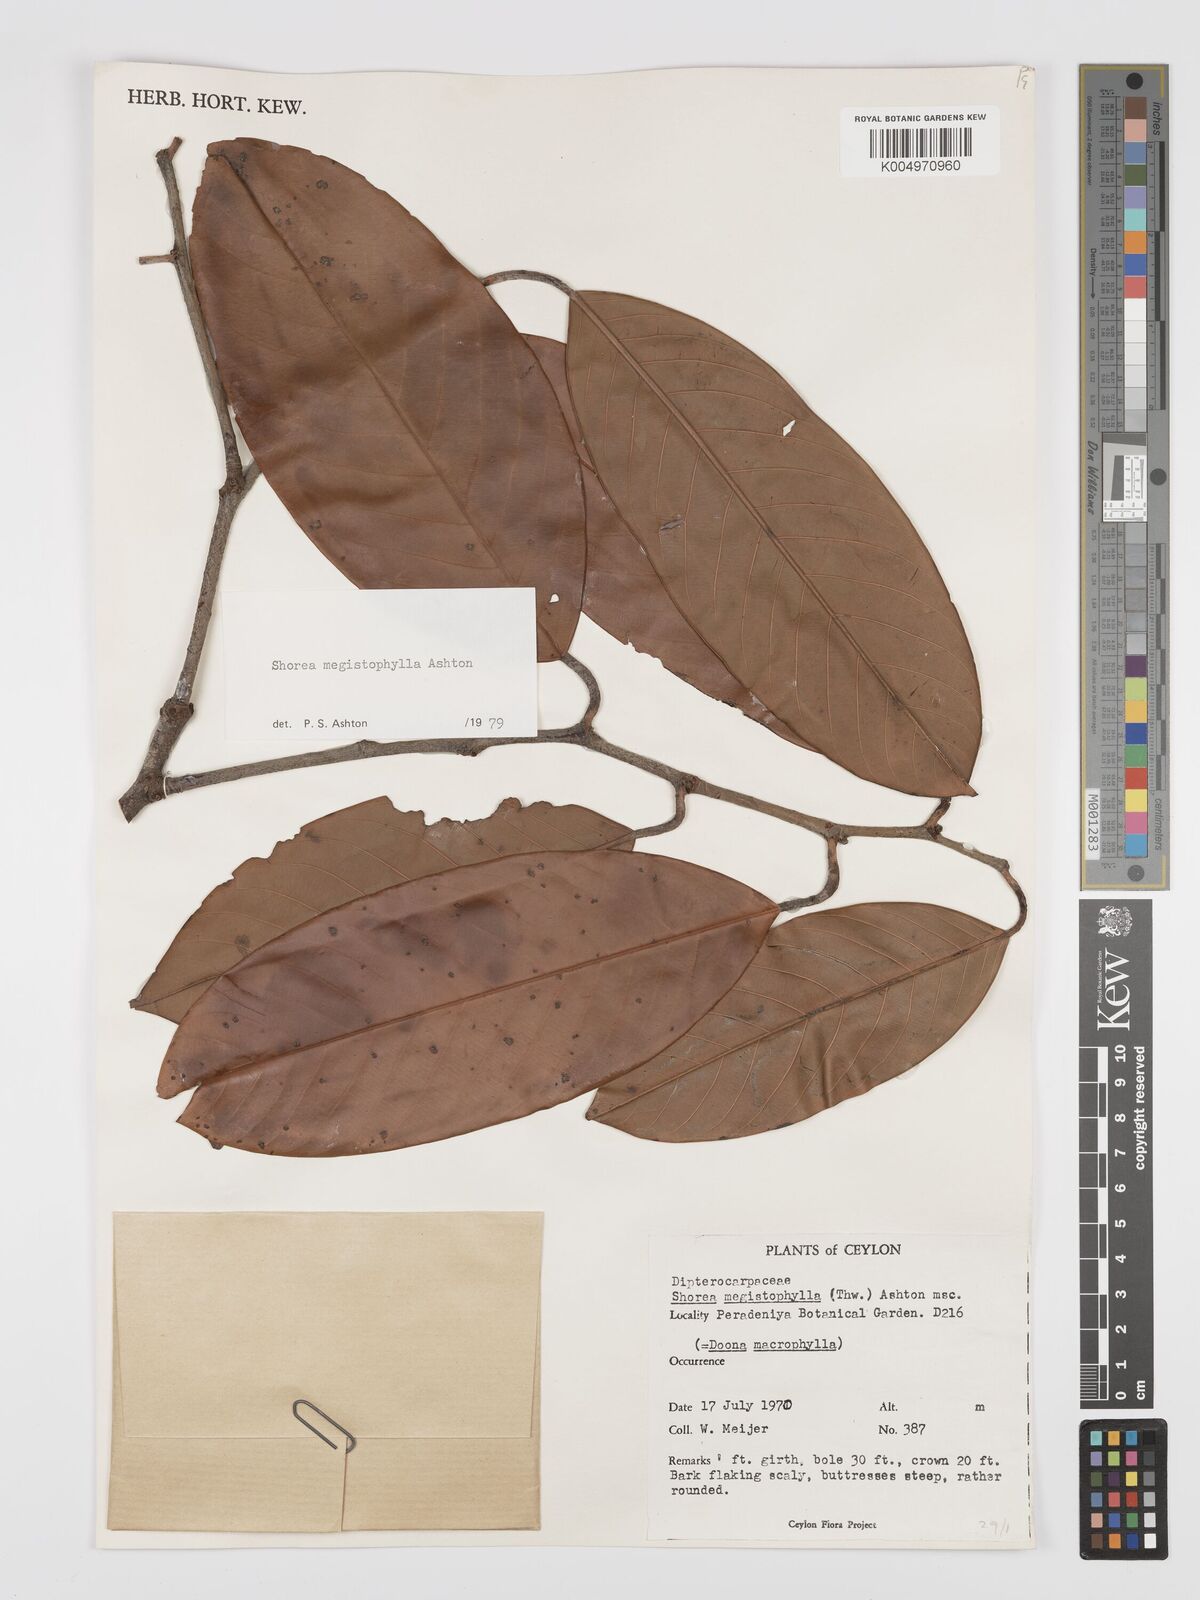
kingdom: Plantae
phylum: Tracheophyta
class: Magnoliopsida
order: Malvales
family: Dipterocarpaceae
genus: Doona
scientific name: Doona macrophylla
